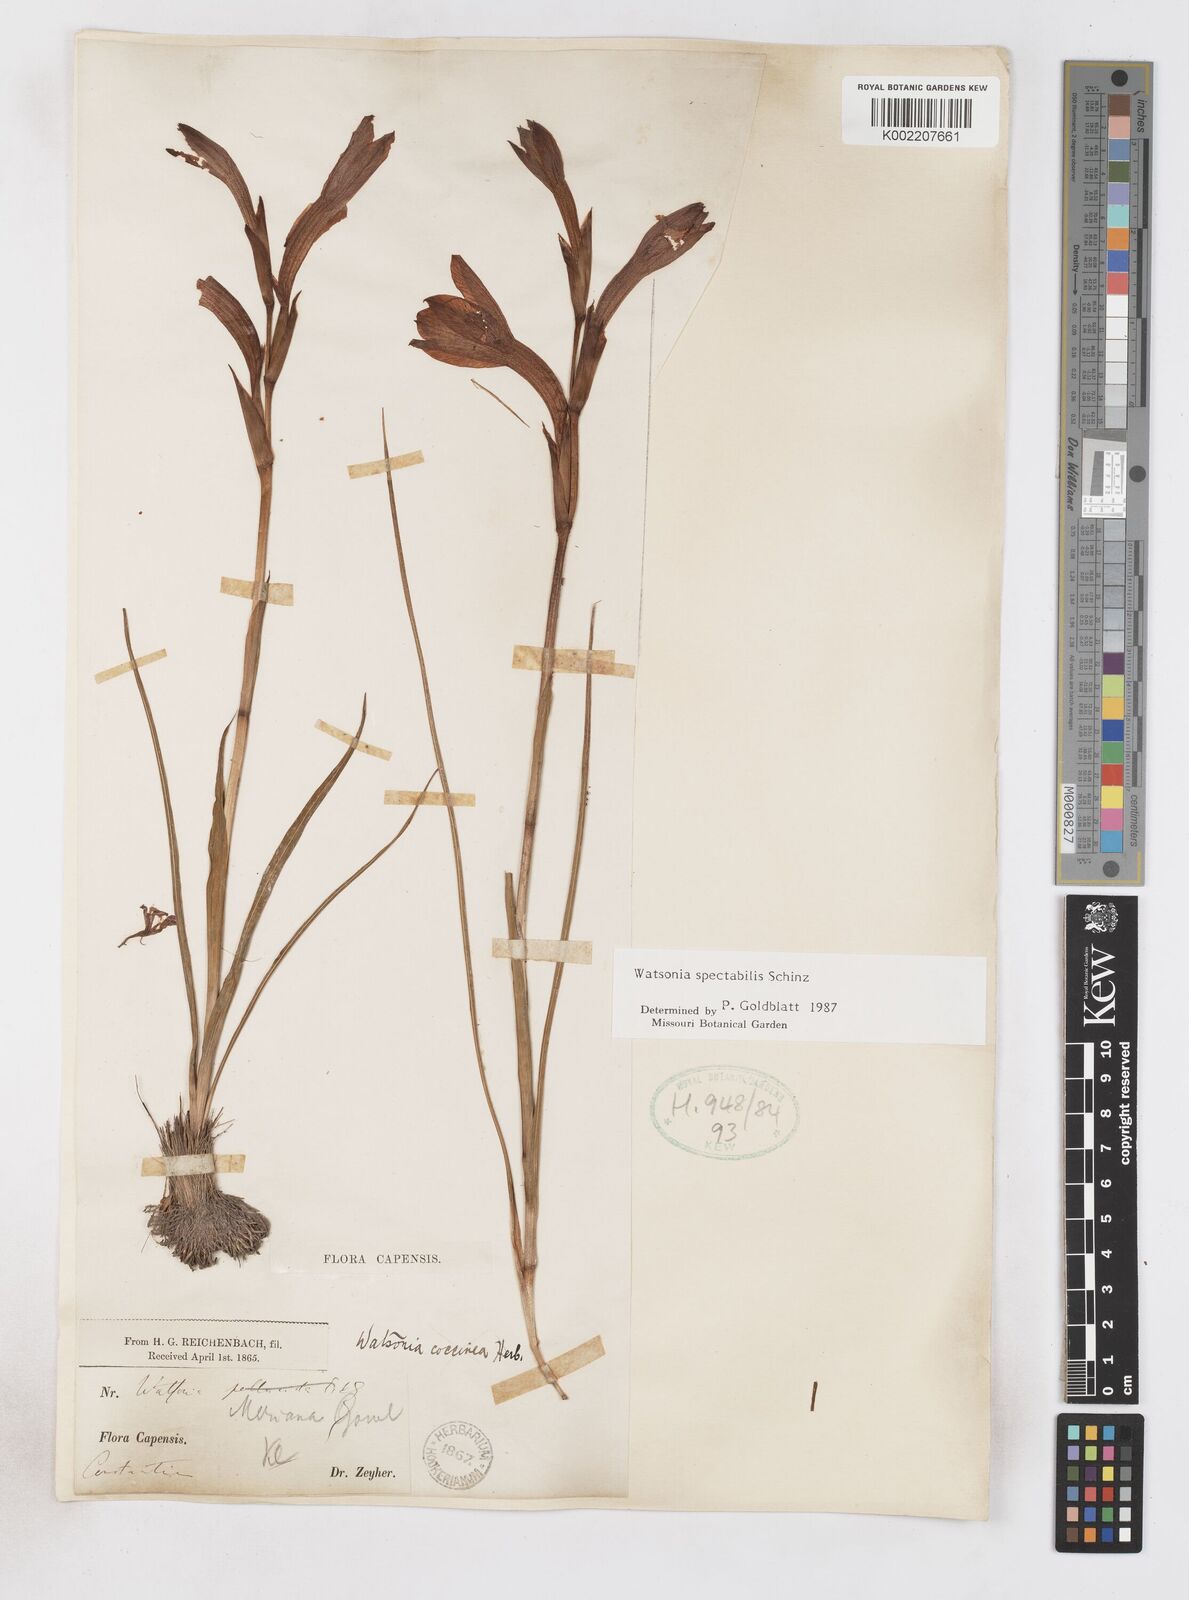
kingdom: Plantae
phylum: Tracheophyta
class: Liliopsida
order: Asparagales
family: Iridaceae
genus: Watsonia
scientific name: Watsonia spectabilis
